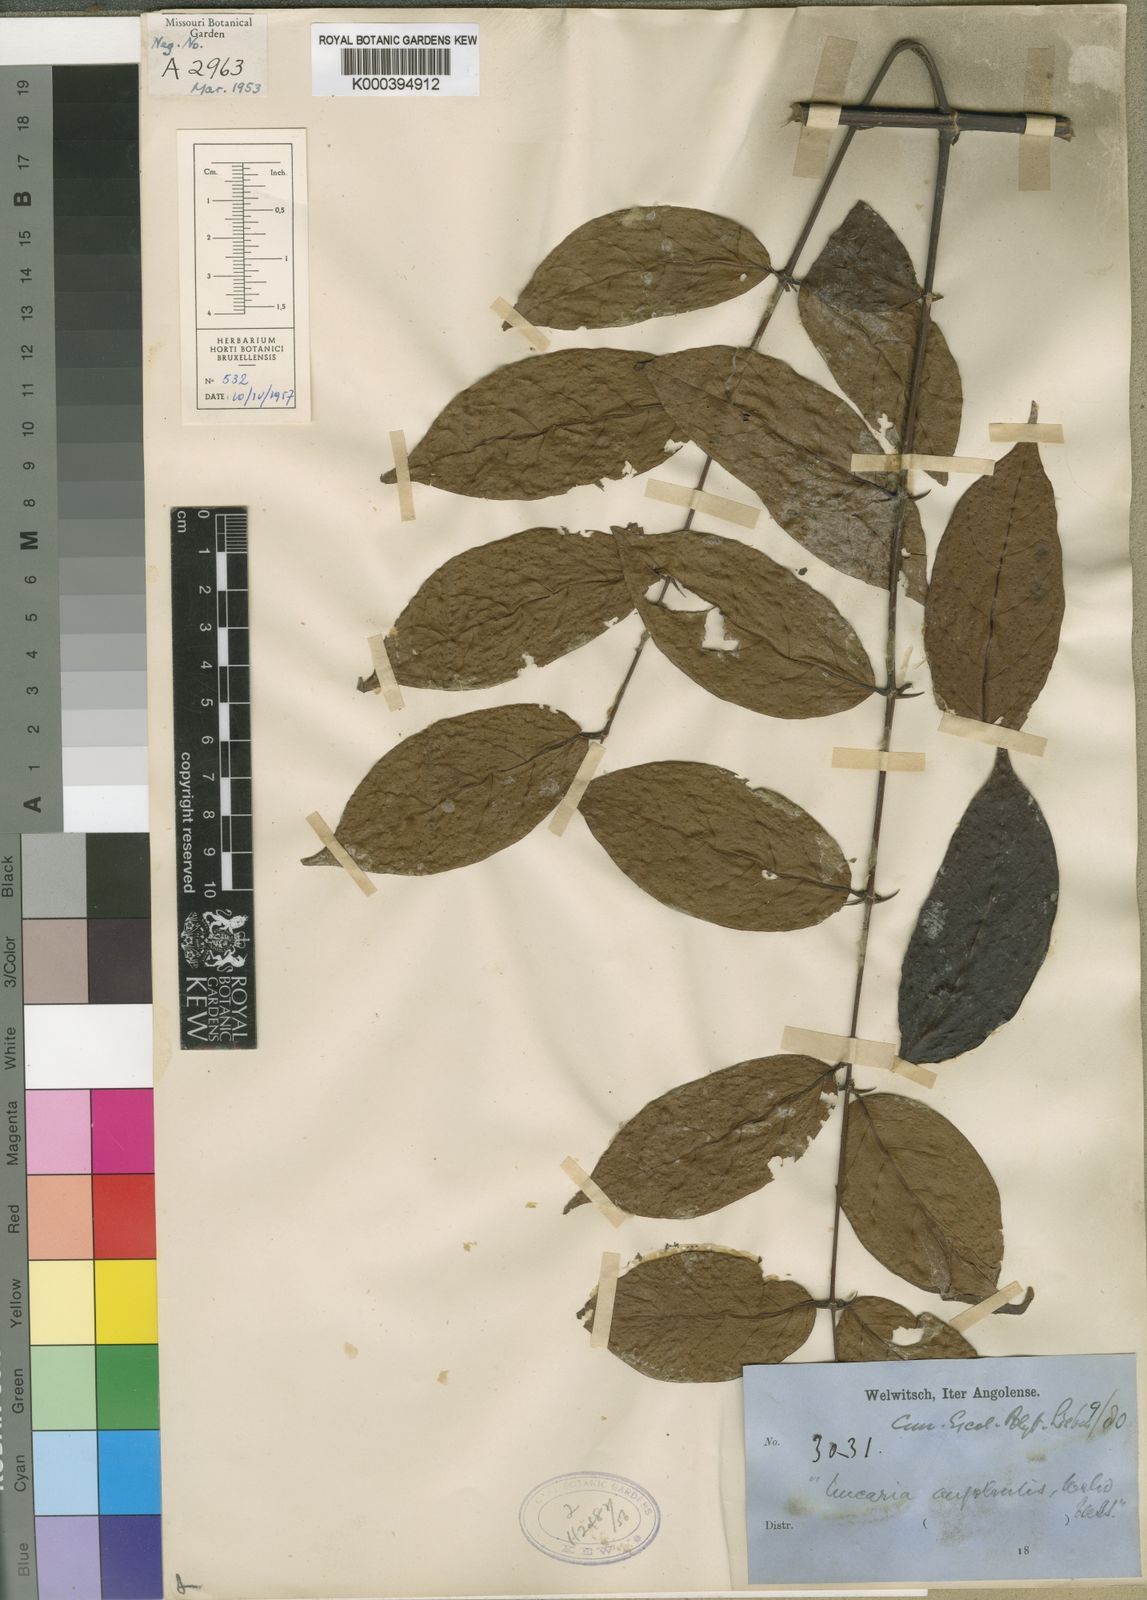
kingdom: Plantae
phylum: Tracheophyta
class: Magnoliopsida
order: Gentianales
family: Rubiaceae
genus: Uncaria
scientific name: Uncaria angolensis
